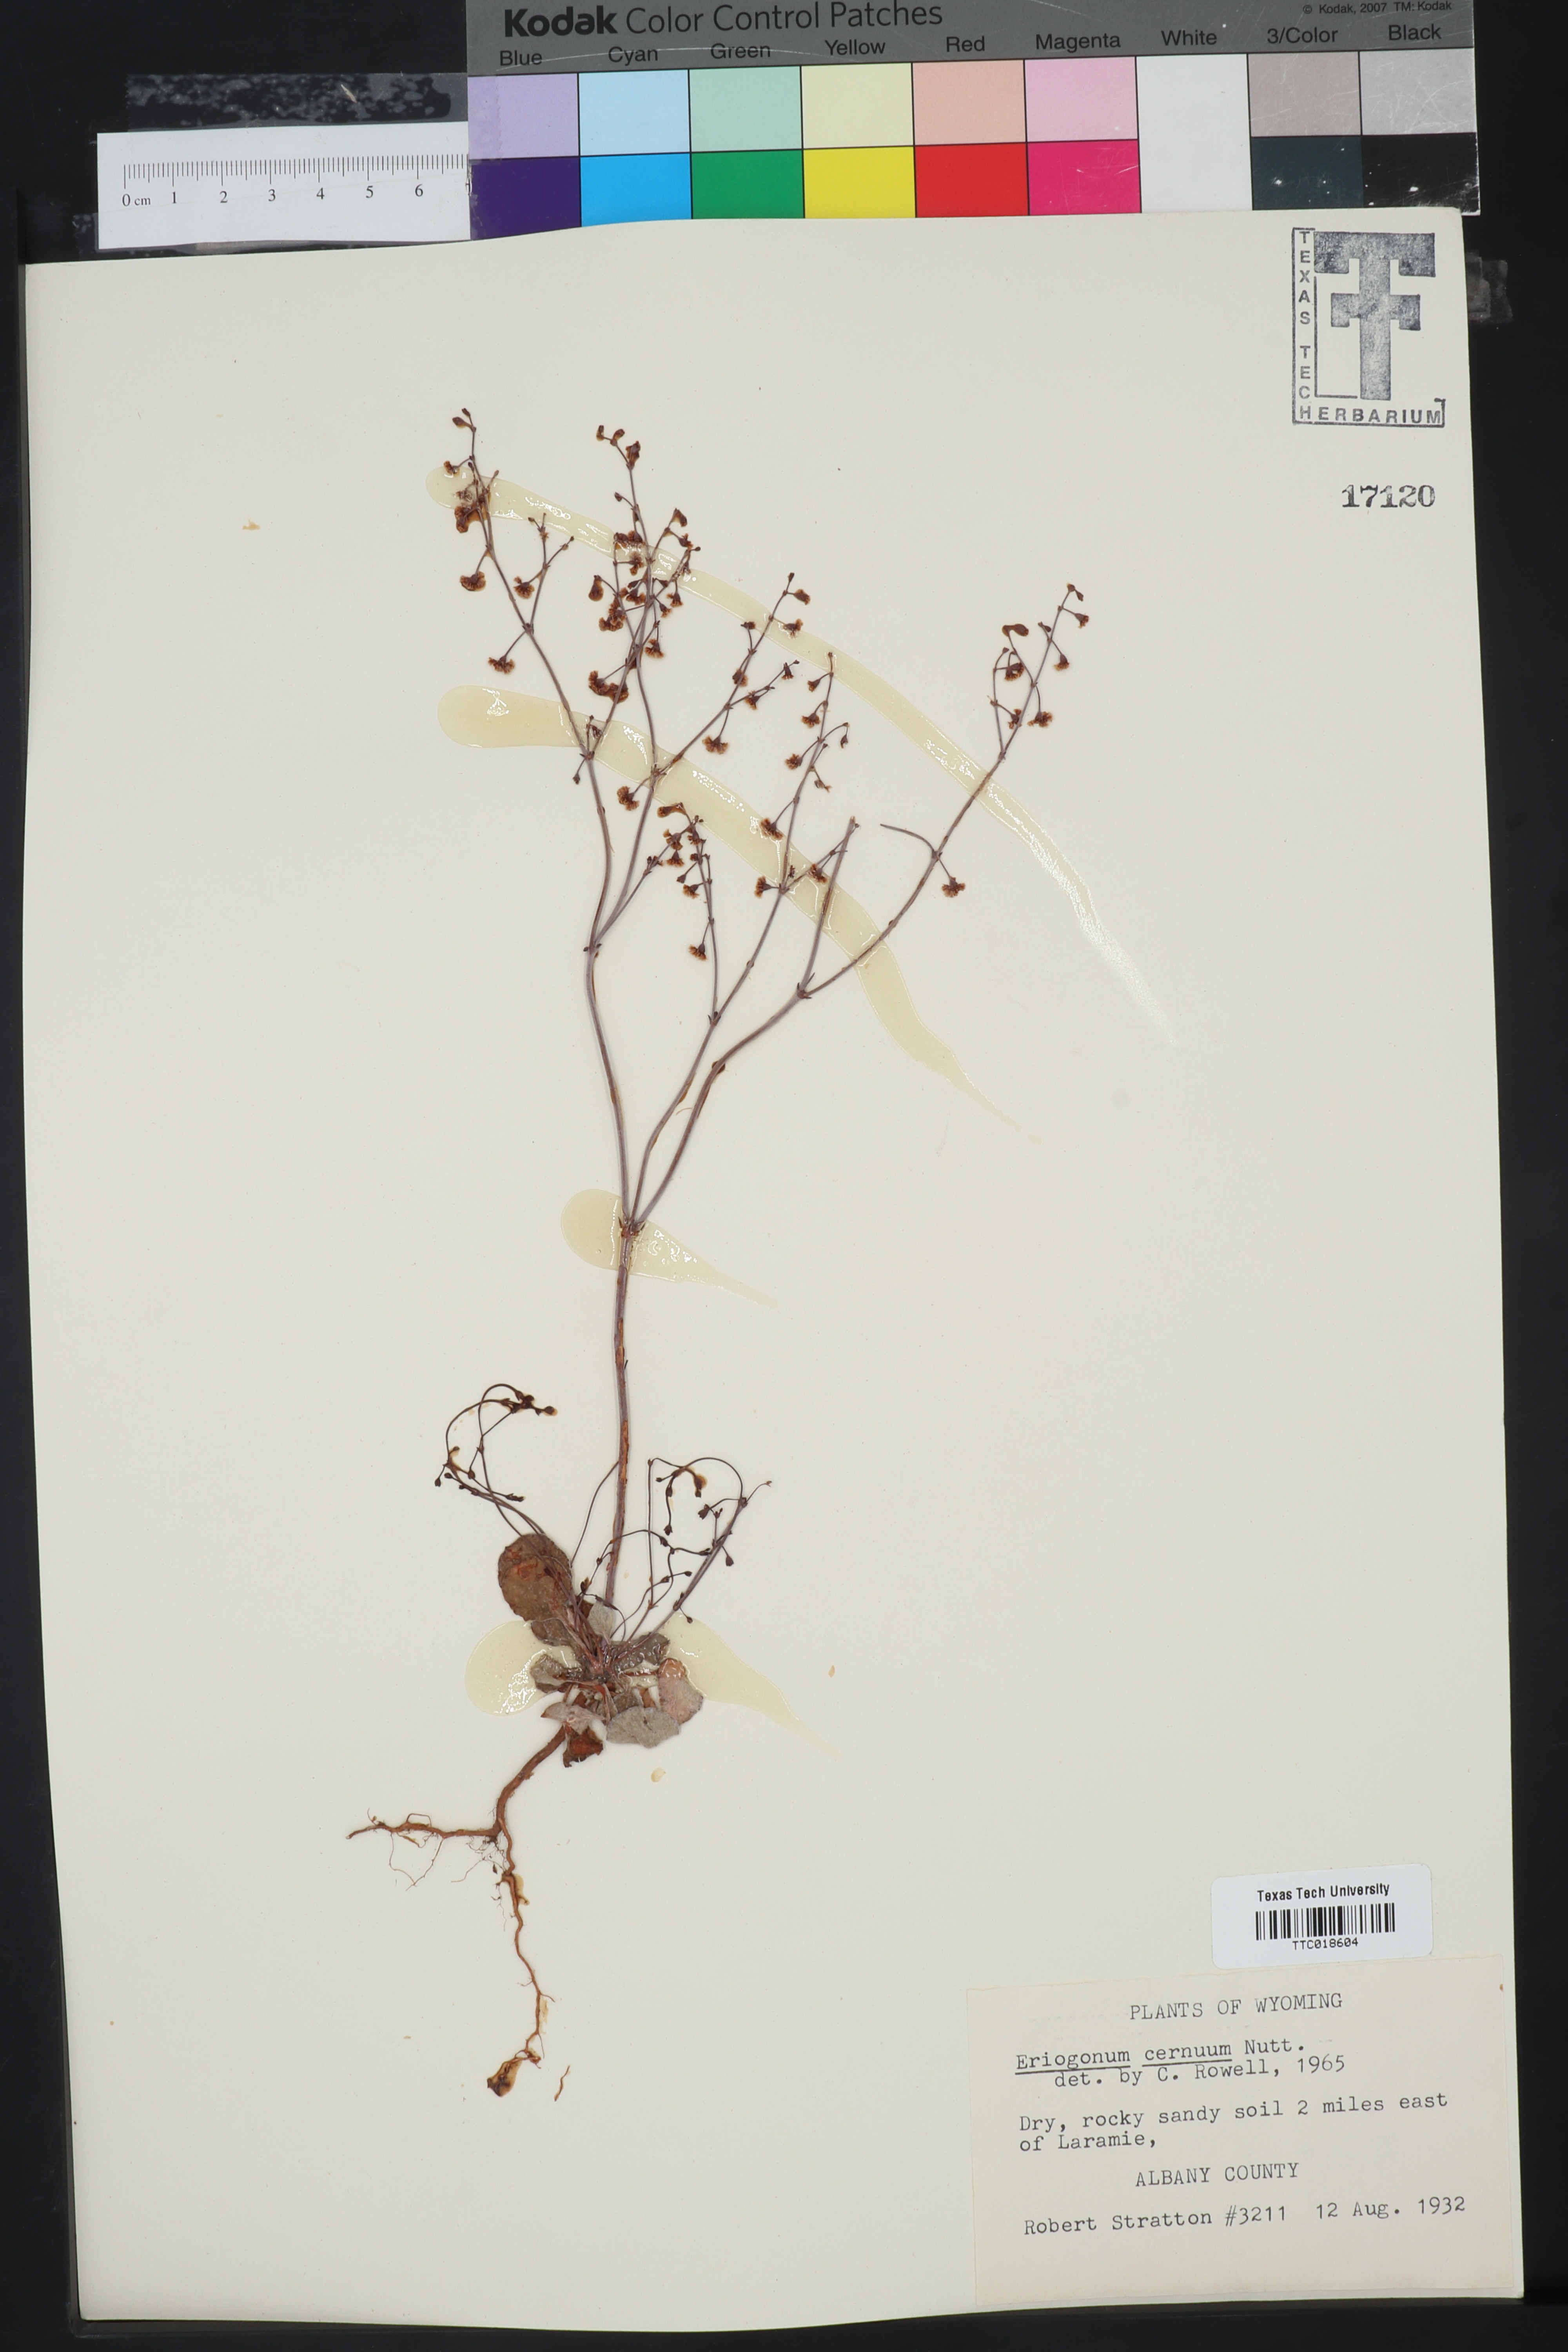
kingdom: Plantae
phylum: Tracheophyta
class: Magnoliopsida
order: Caryophyllales
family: Polygonaceae
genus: Eriogonum
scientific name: Eriogonum cernuum
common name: Nodding wild buckwheat
